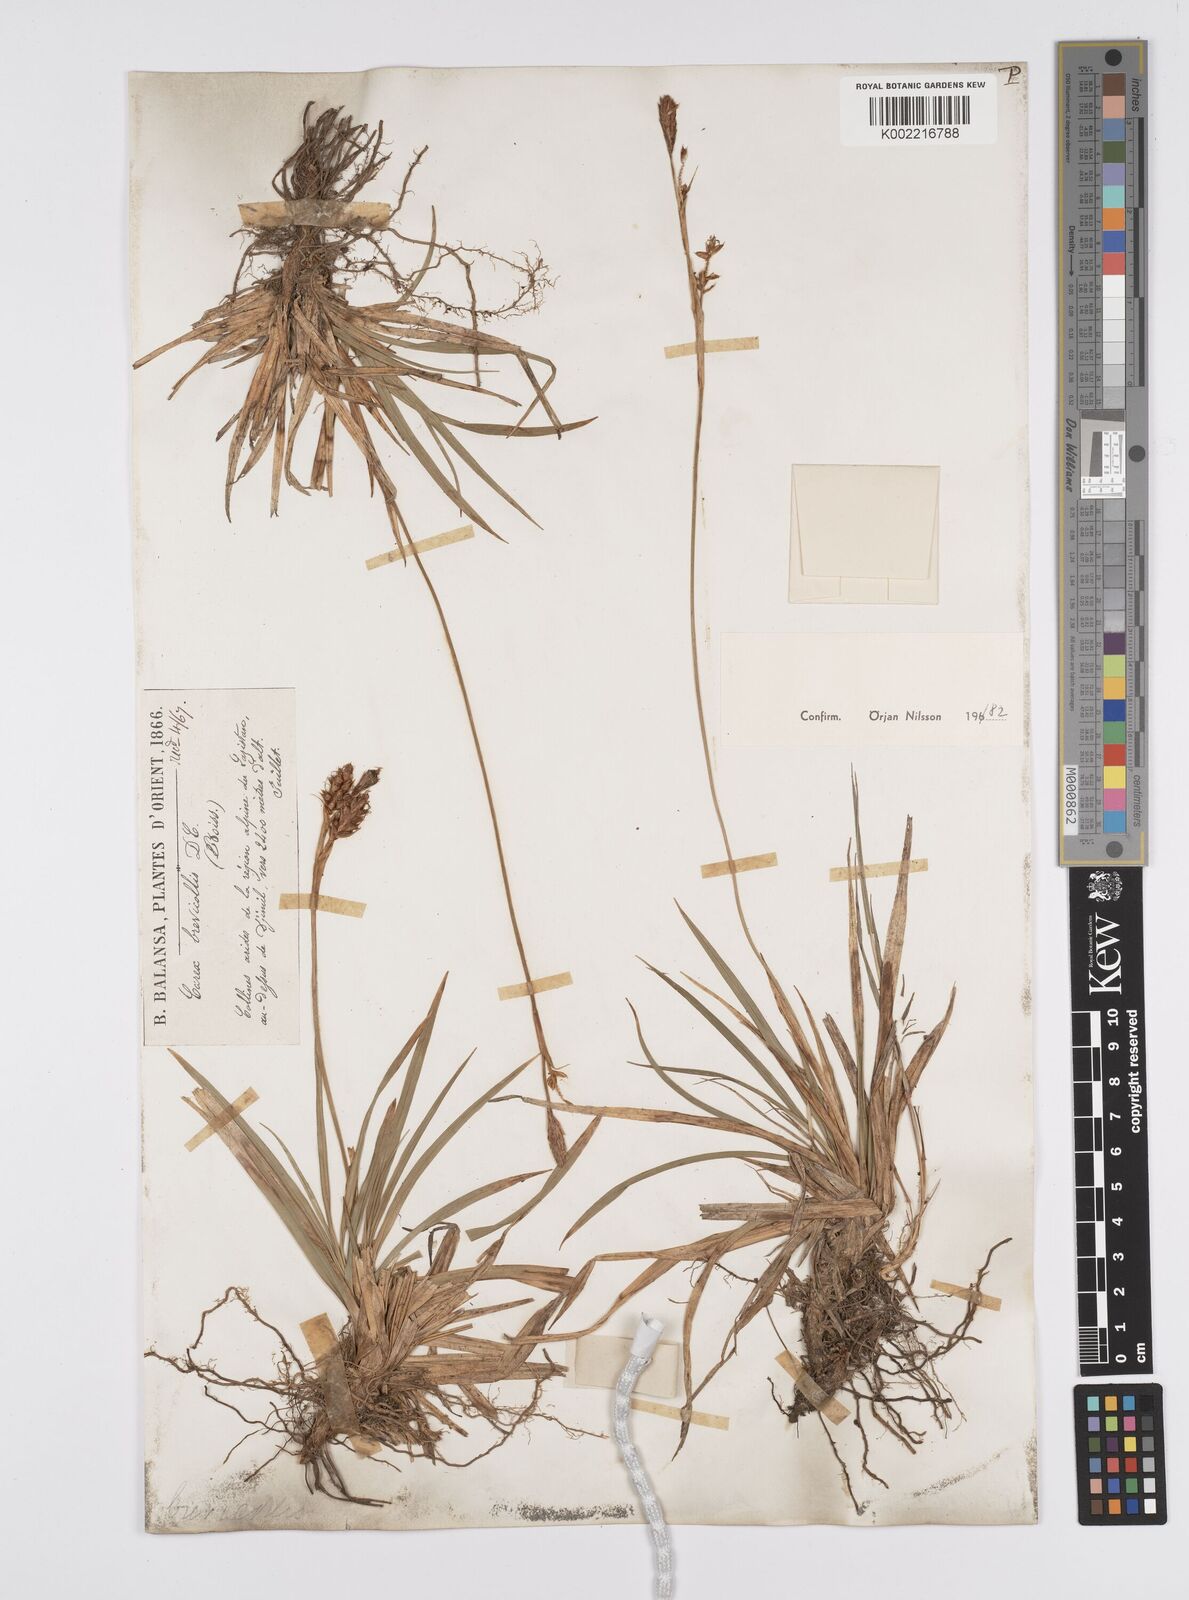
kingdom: Plantae
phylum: Tracheophyta
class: Liliopsida
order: Poales
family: Cyperaceae
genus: Carex
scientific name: Carex brevicollis
